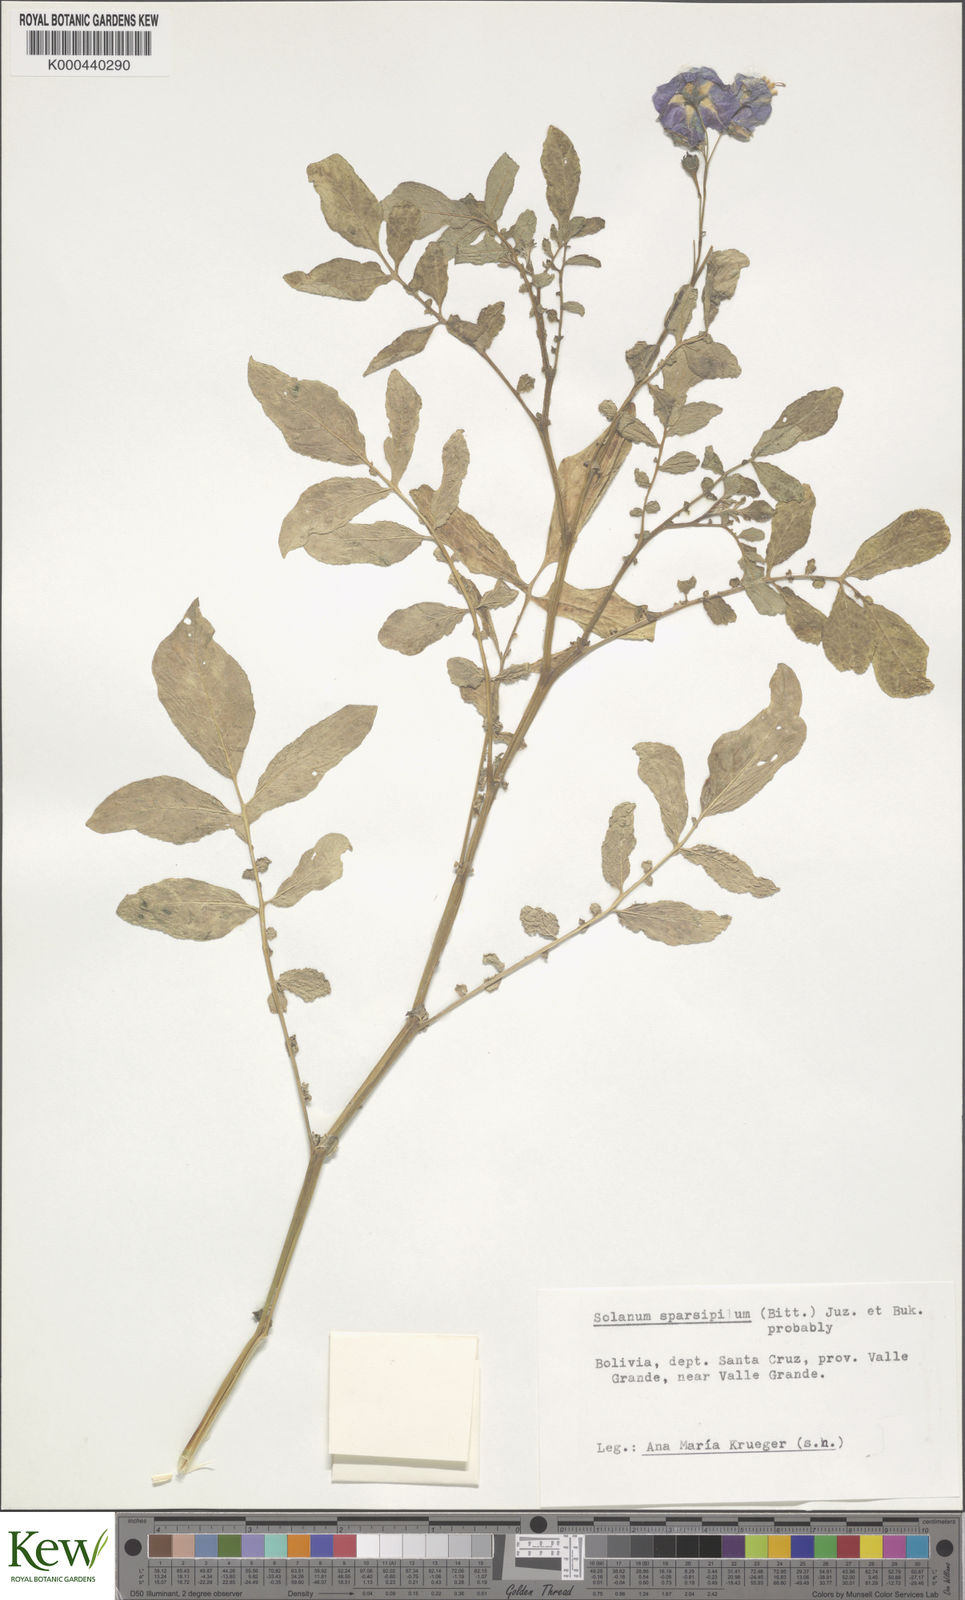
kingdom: Plantae
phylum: Tracheophyta
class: Magnoliopsida
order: Solanales
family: Solanaceae
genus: Solanum
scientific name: Solanum brevicaule
